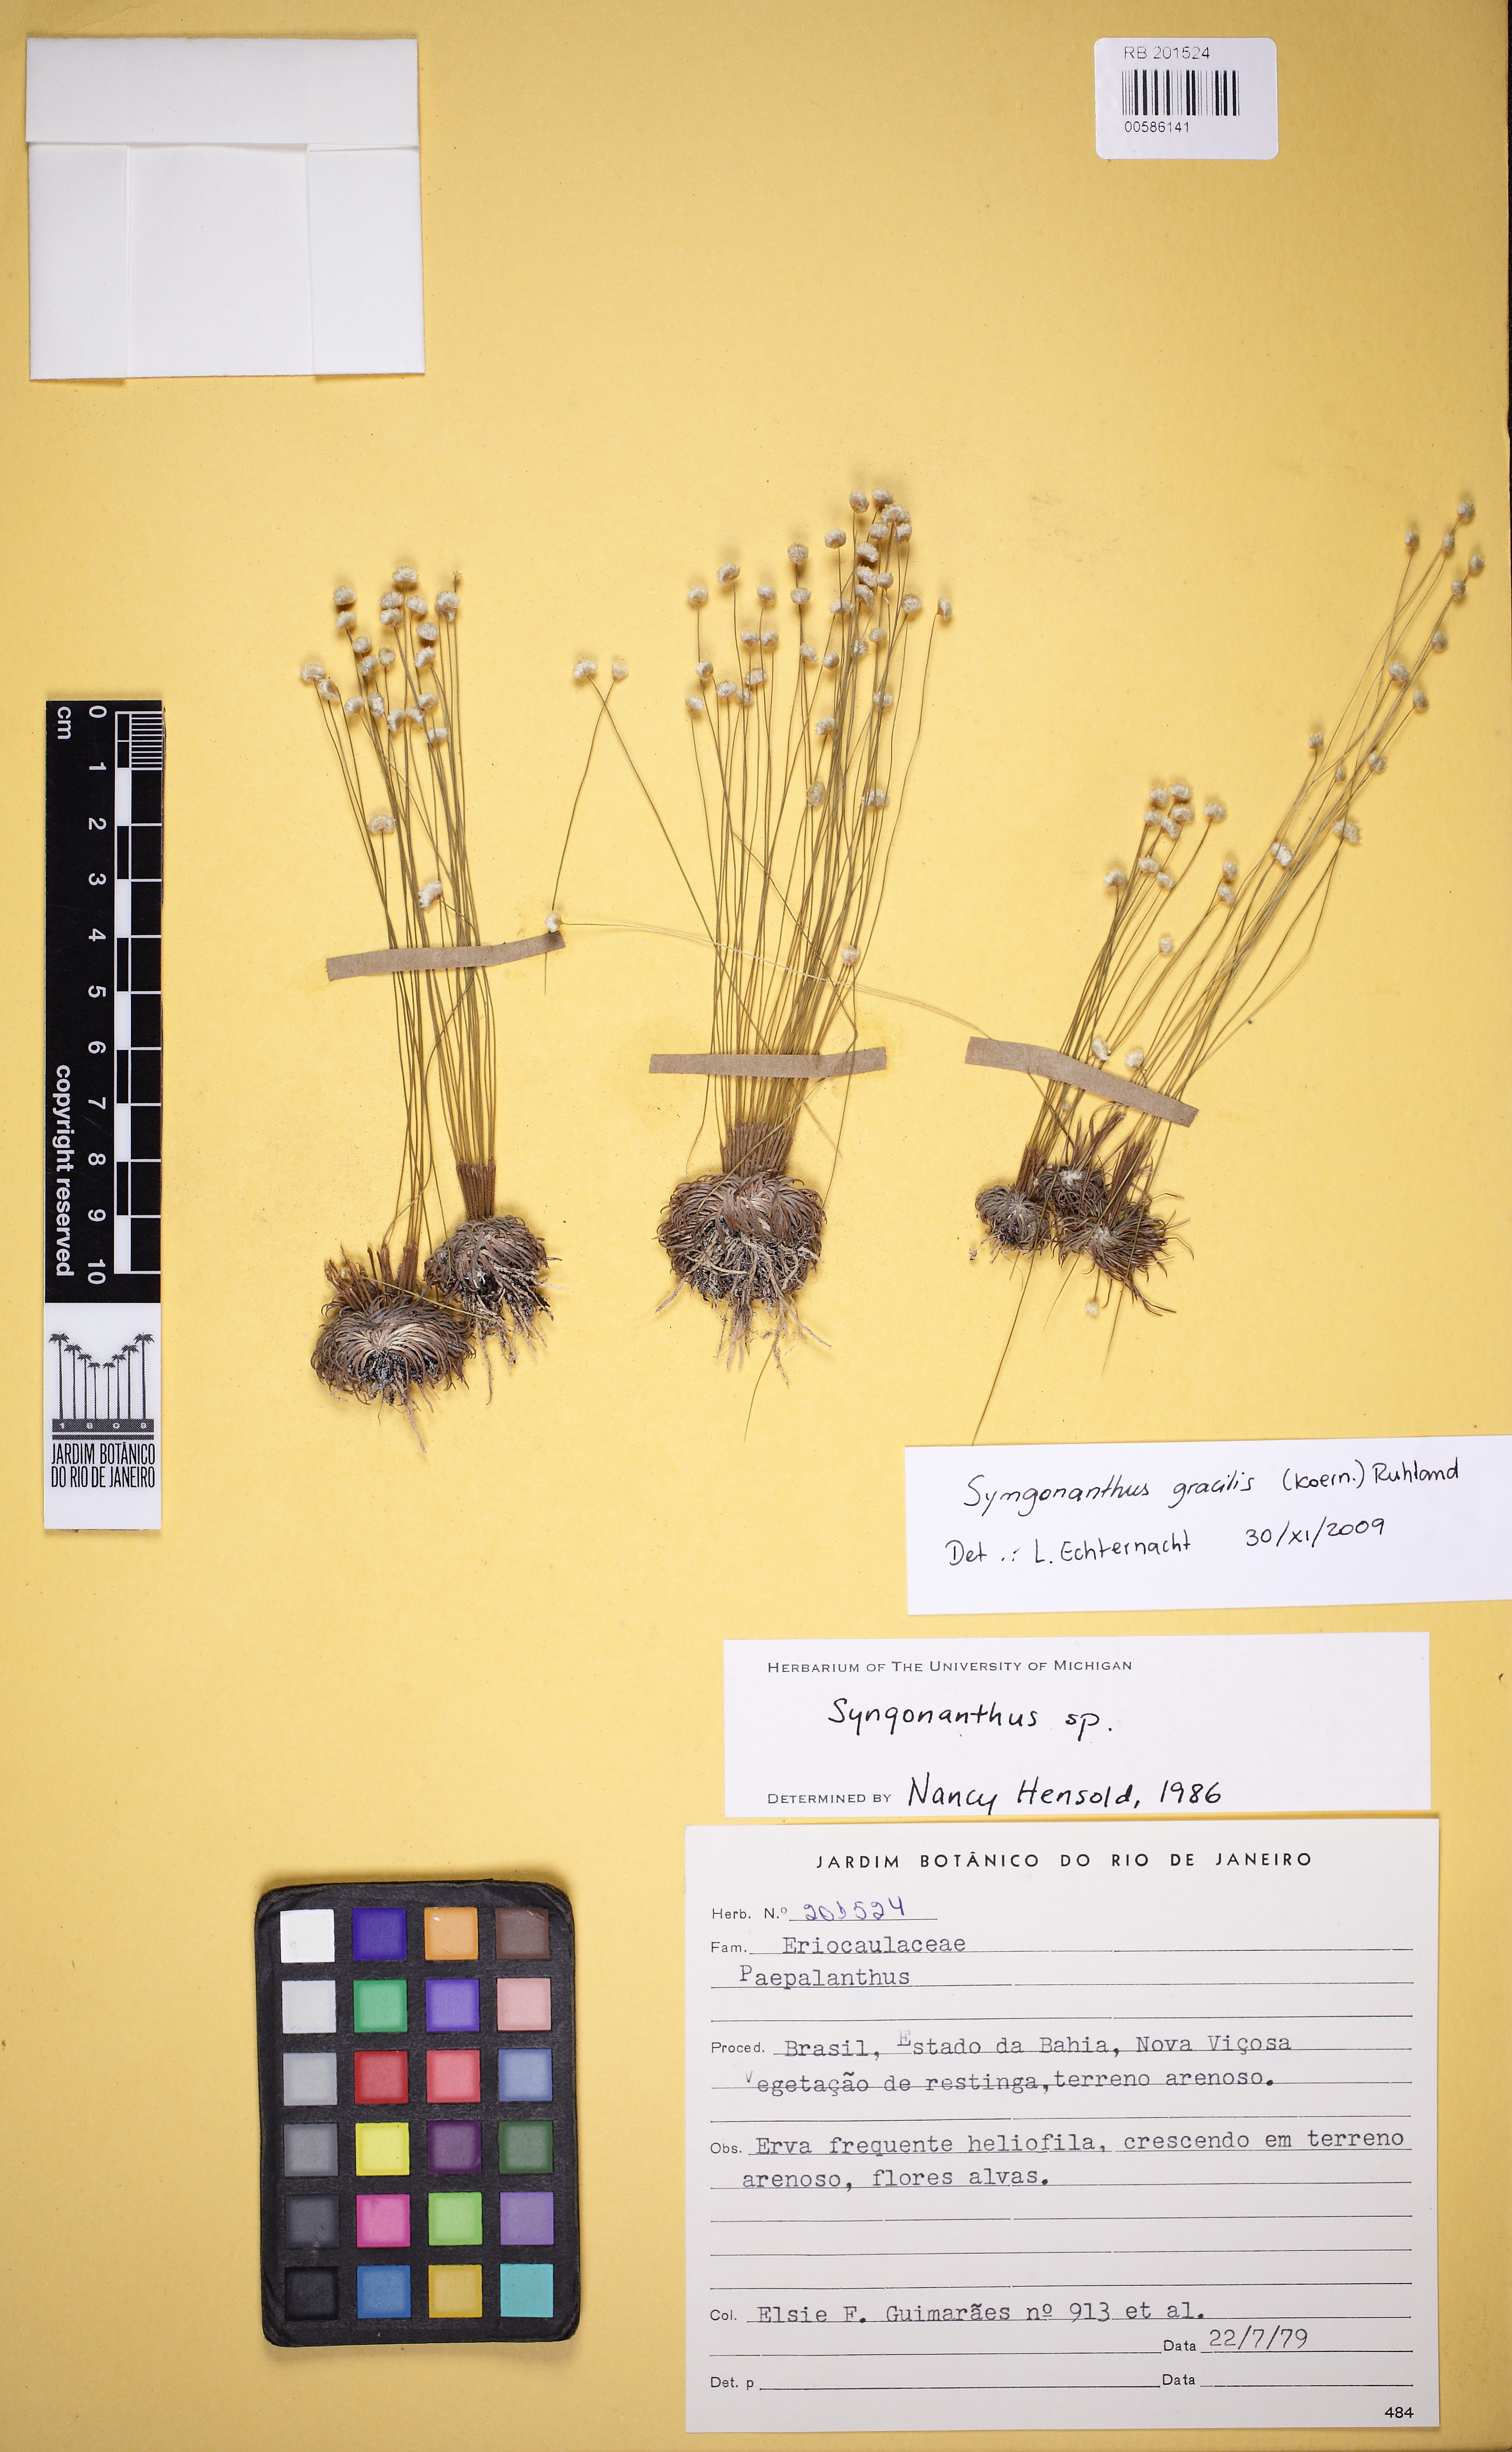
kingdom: Plantae
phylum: Tracheophyta
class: Liliopsida
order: Poales
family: Eriocaulaceae
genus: Syngonanthus
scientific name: Syngonanthus gracilis
